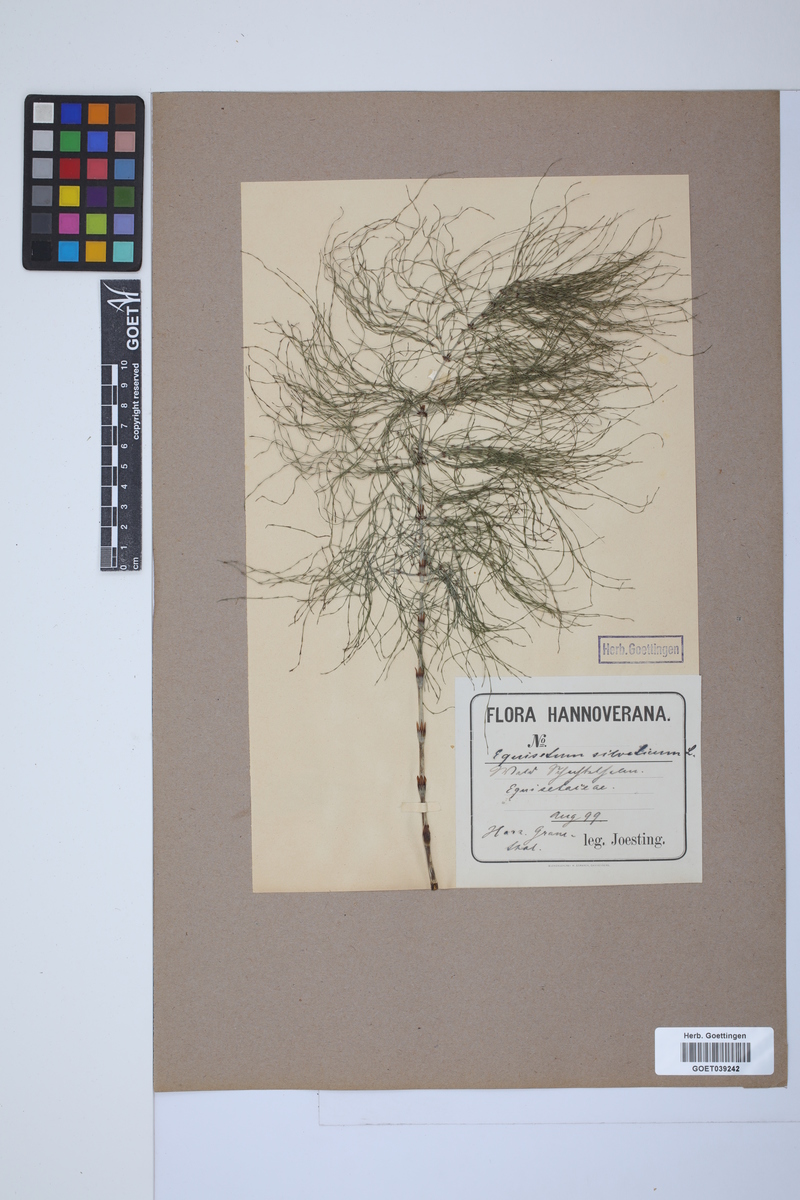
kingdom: Plantae
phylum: Tracheophyta
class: Polypodiopsida
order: Equisetales
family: Equisetaceae
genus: Equisetum
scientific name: Equisetum sylvaticum
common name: Wood horsetail
